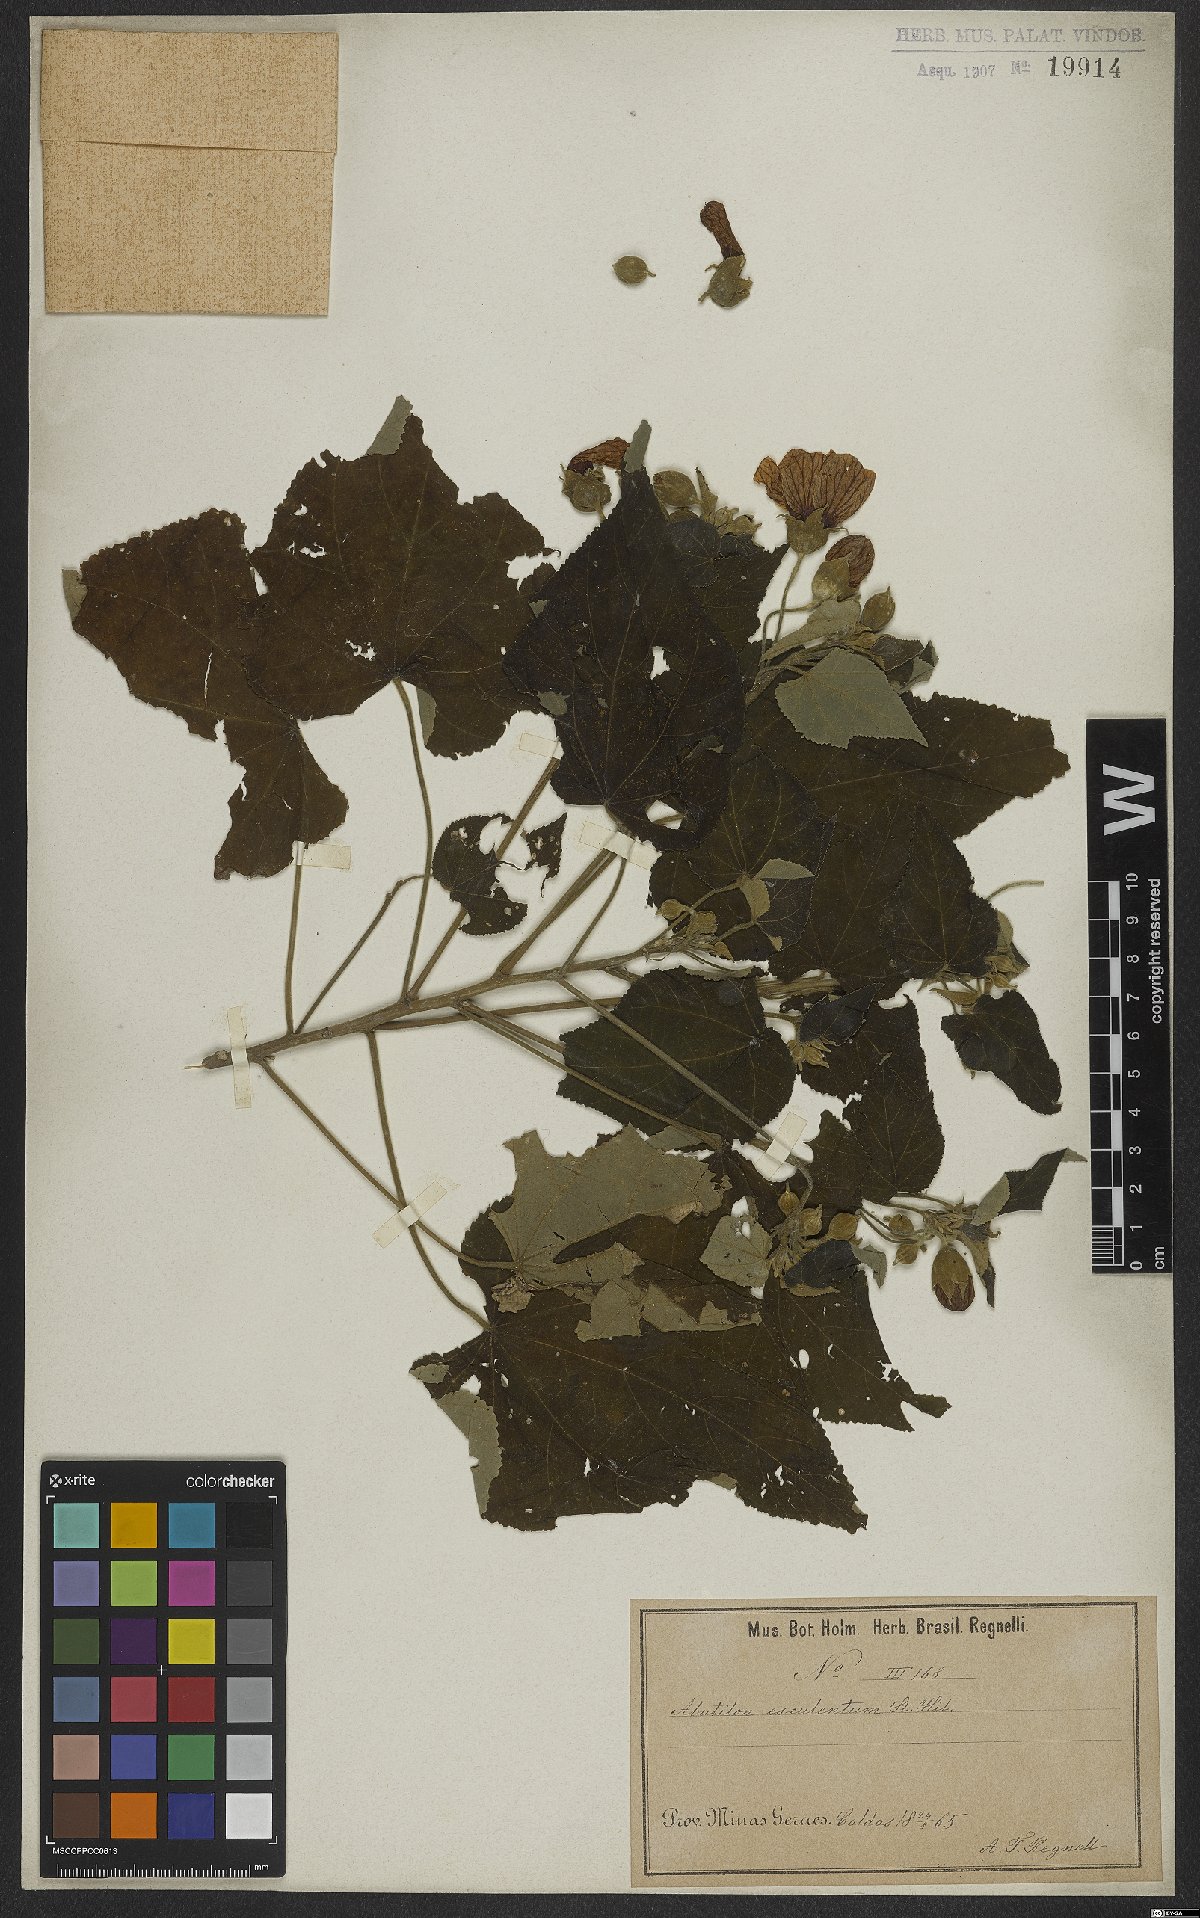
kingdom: Plantae
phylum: Tracheophyta
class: Magnoliopsida
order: Malvales
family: Malvaceae
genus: Bakeridesia
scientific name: Bakeridesia esculenta
